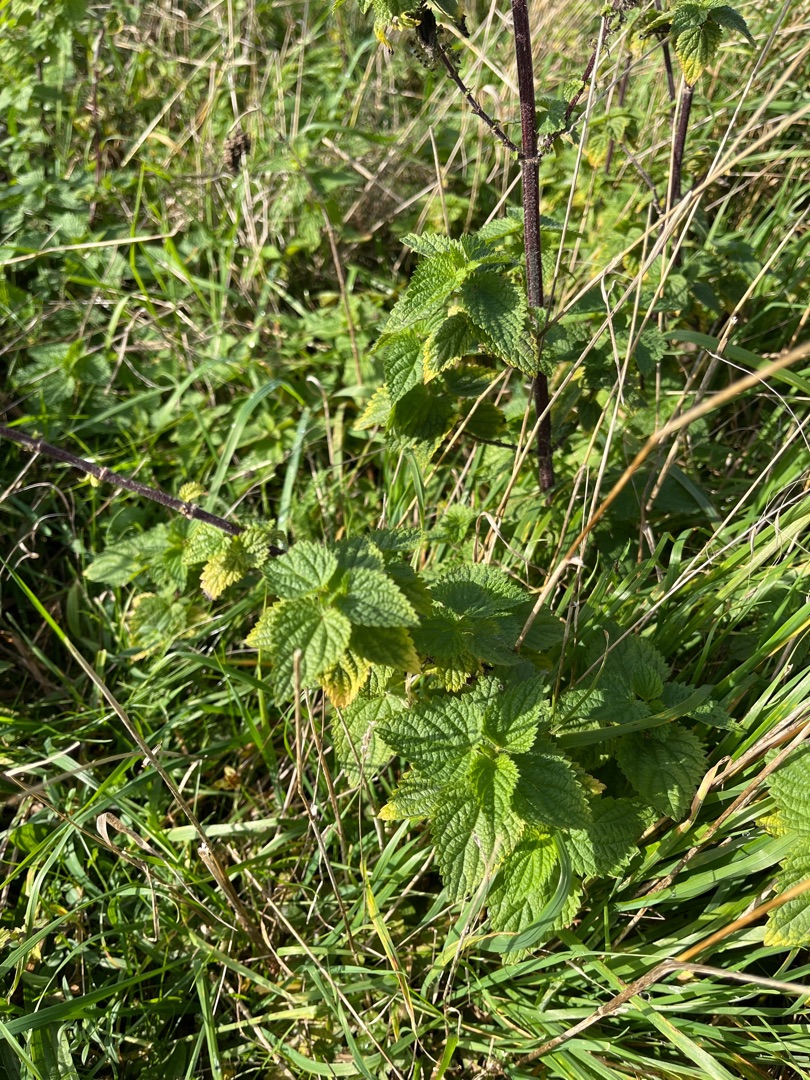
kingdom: Plantae
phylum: Tracheophyta
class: Magnoliopsida
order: Rosales
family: Urticaceae
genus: Urtica
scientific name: Urtica dioica
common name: Stor nælde
